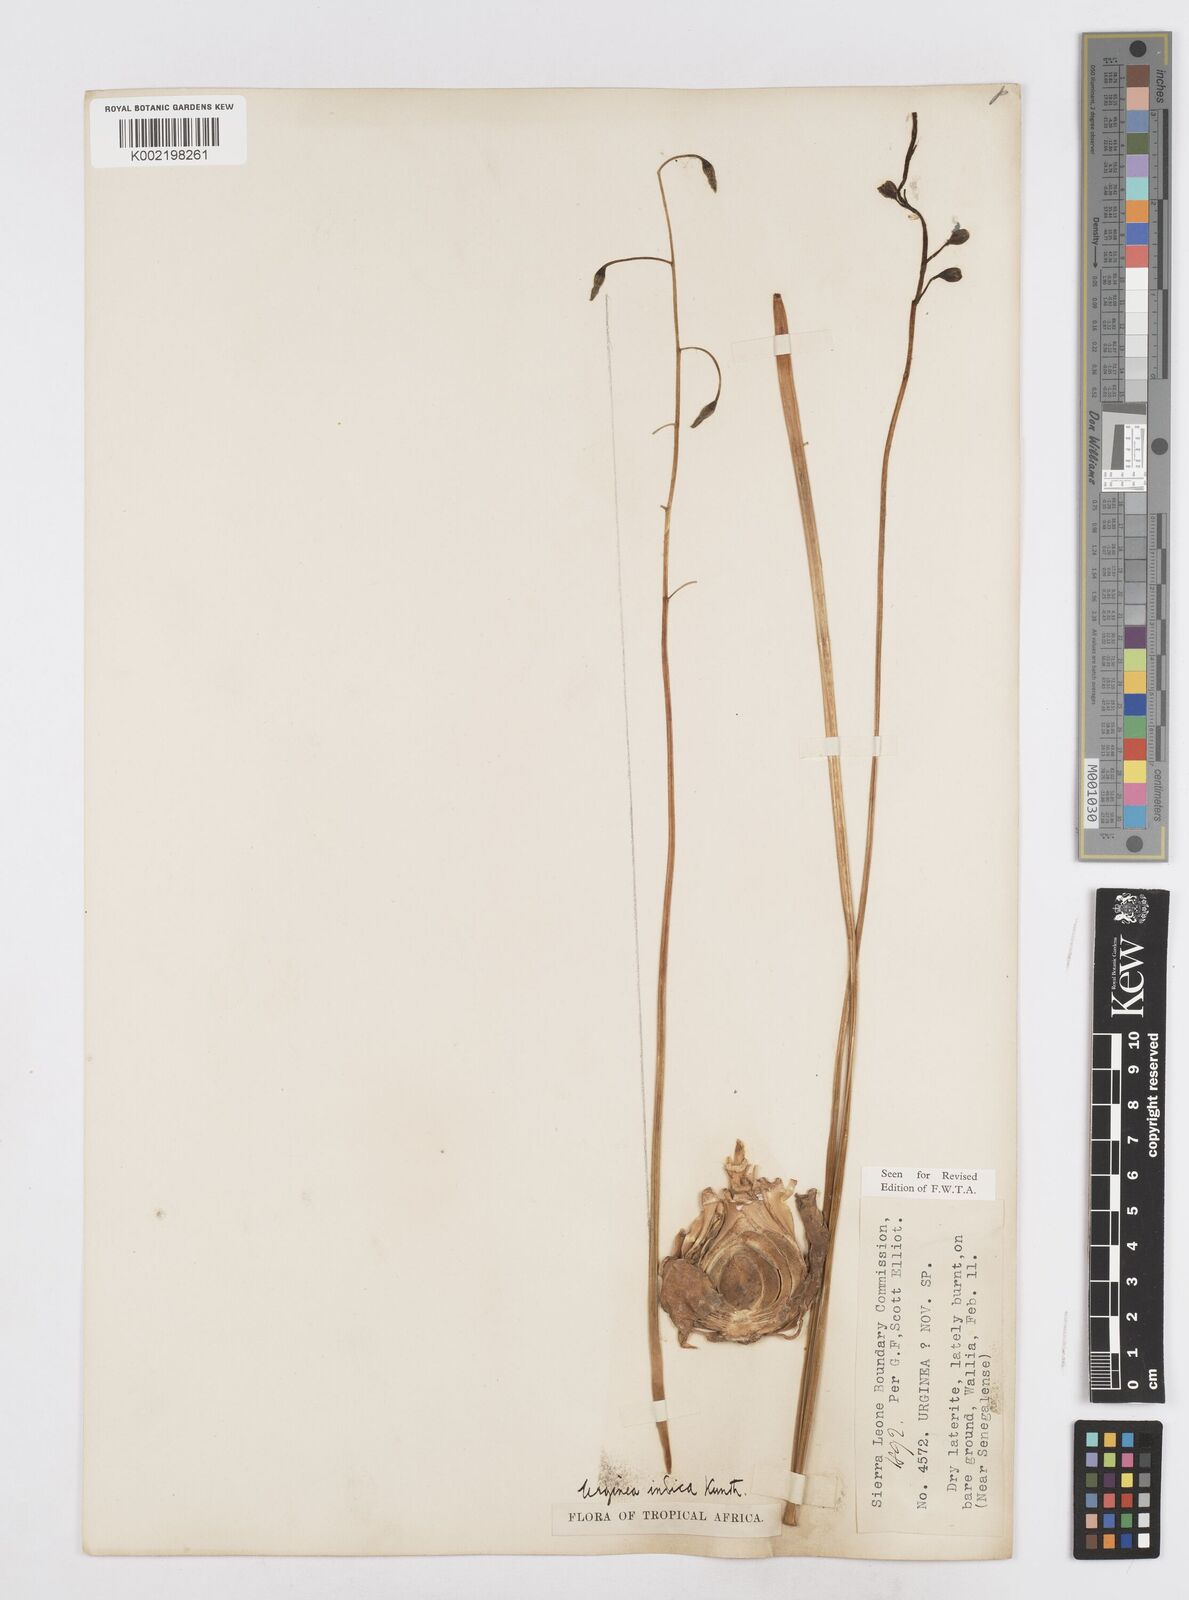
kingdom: Plantae
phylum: Tracheophyta
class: Liliopsida
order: Asparagales
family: Asparagaceae
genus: Drimia
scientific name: Drimia indica
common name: Indian-squill
